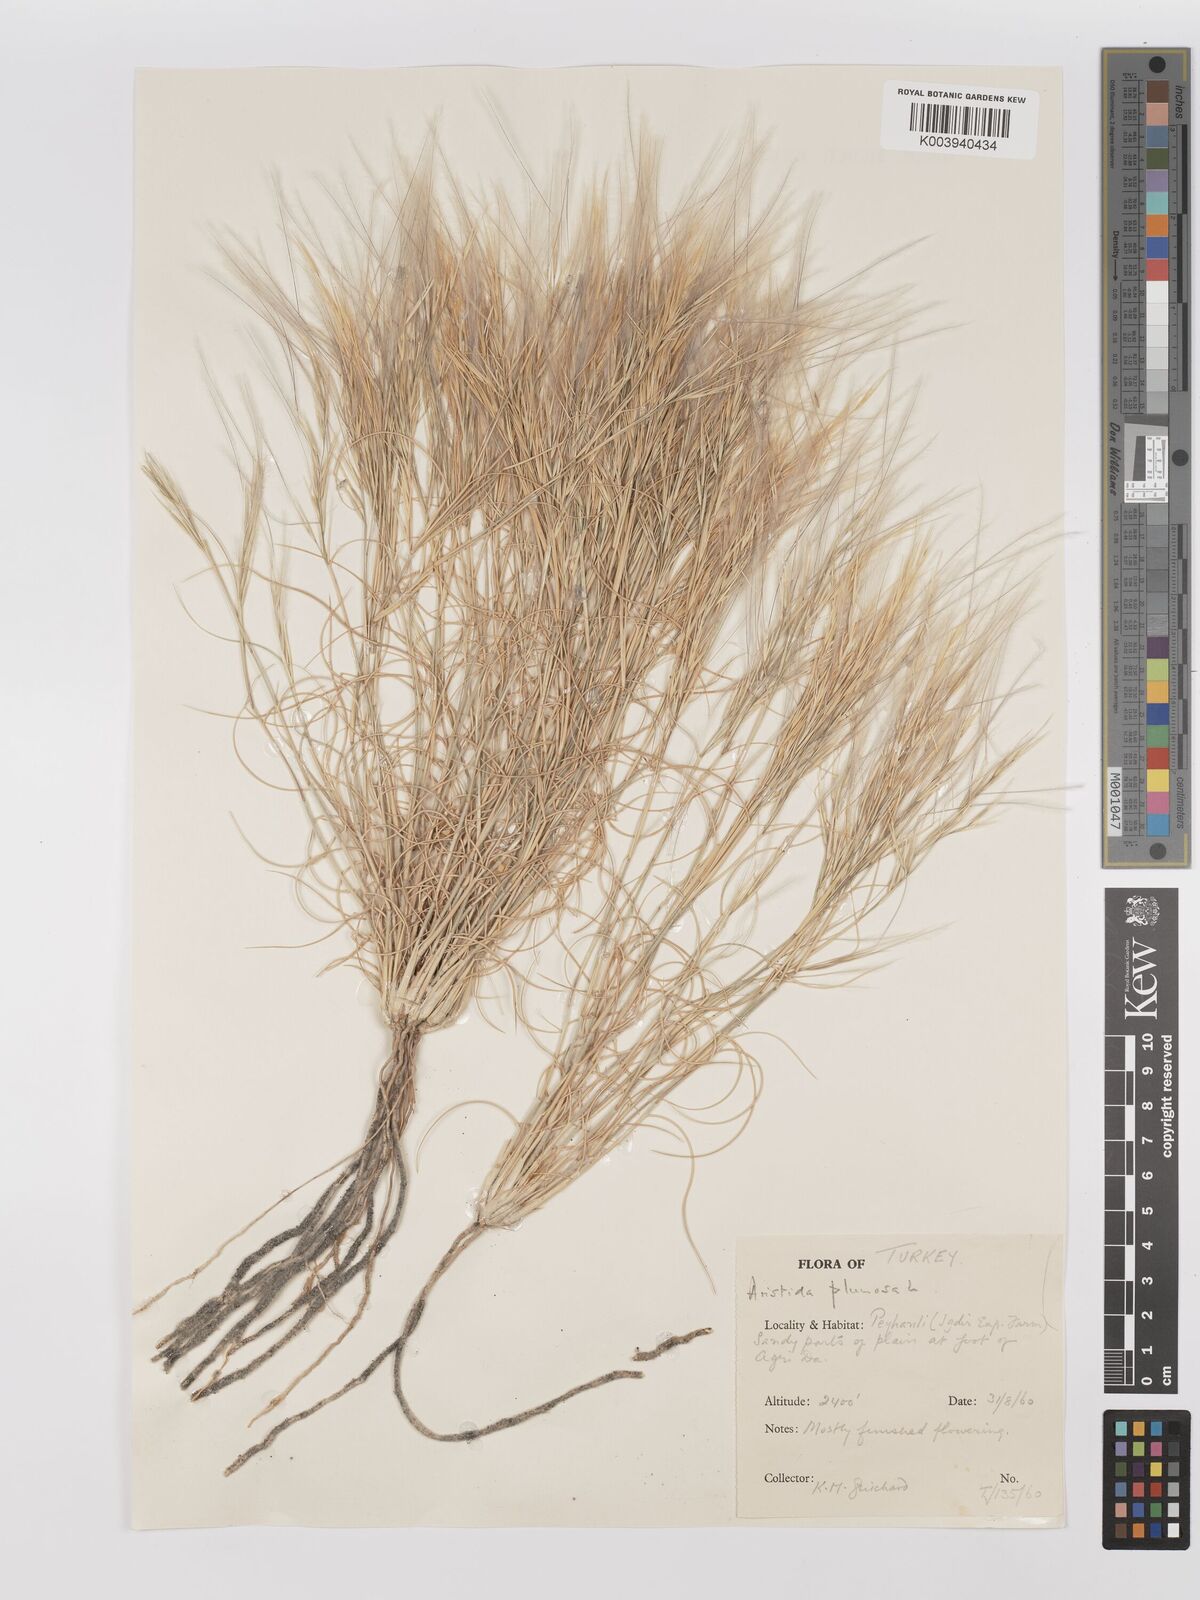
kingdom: Plantae
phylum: Tracheophyta
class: Liliopsida
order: Poales
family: Poaceae
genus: Stipagrostis
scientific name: Stipagrostis plumosa
